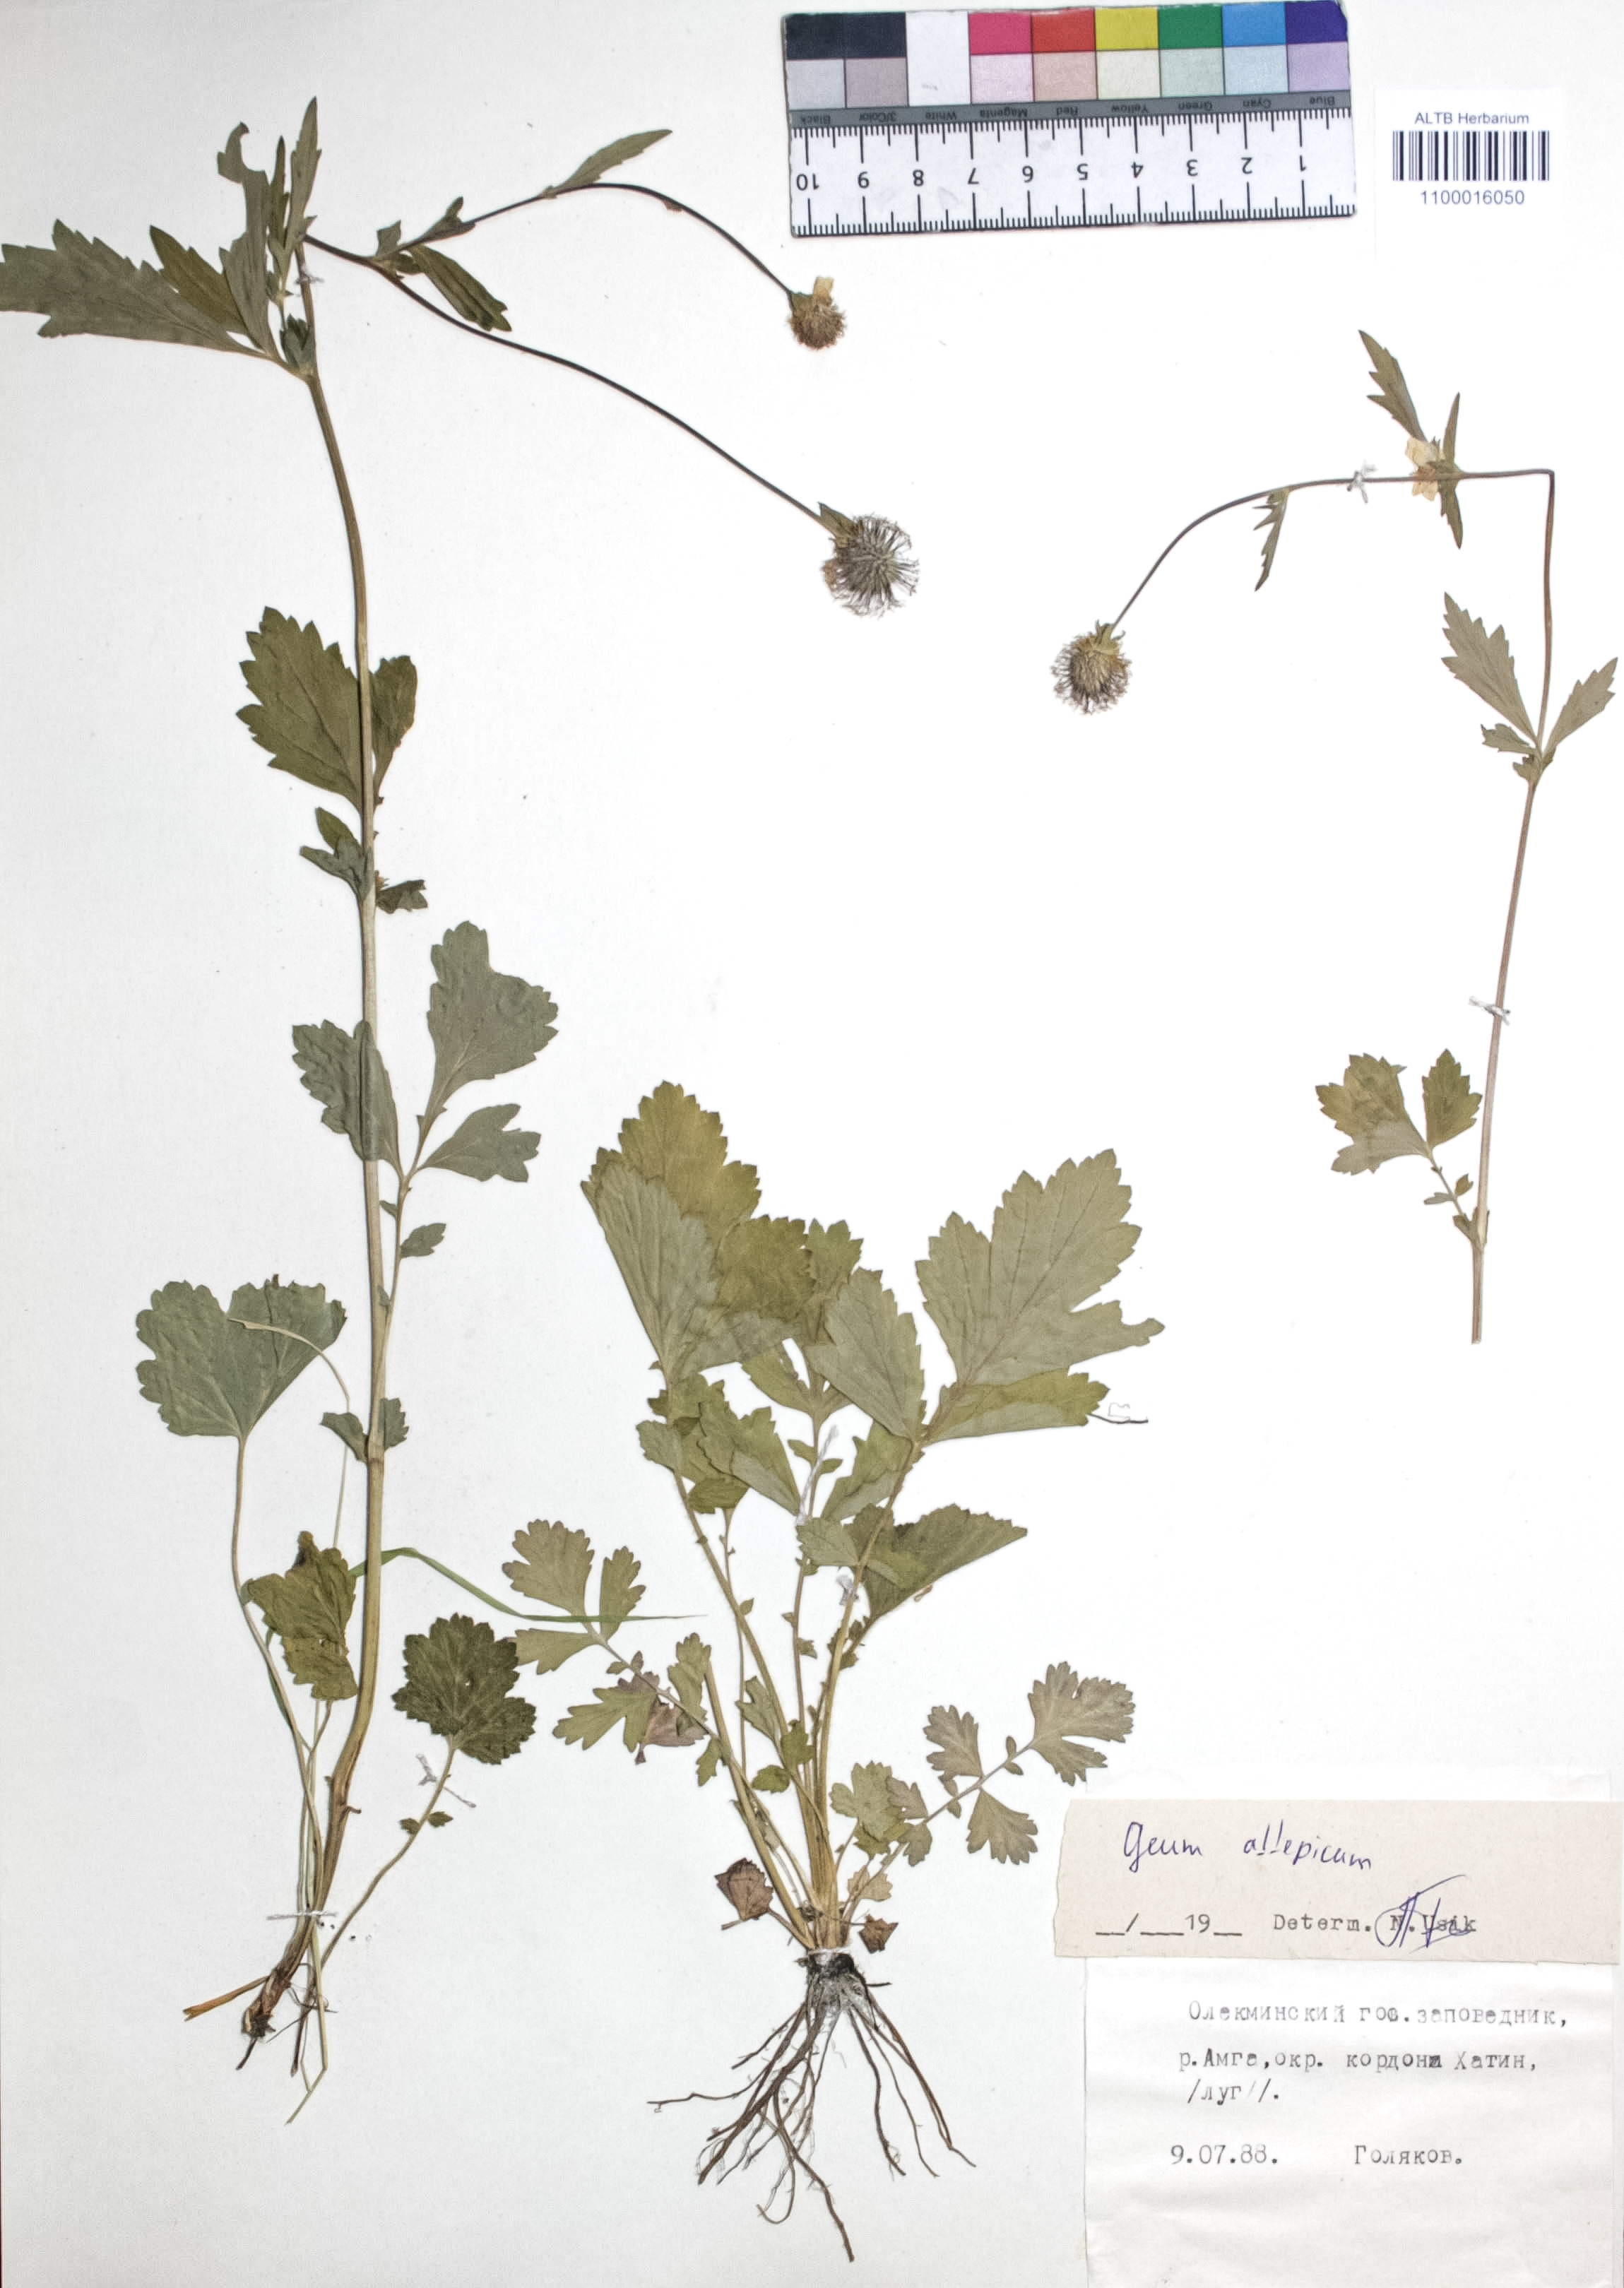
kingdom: Plantae
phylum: Tracheophyta
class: Magnoliopsida
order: Rosales
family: Rosaceae
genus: Geum
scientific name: Geum aleppicum
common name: Yellow avens
